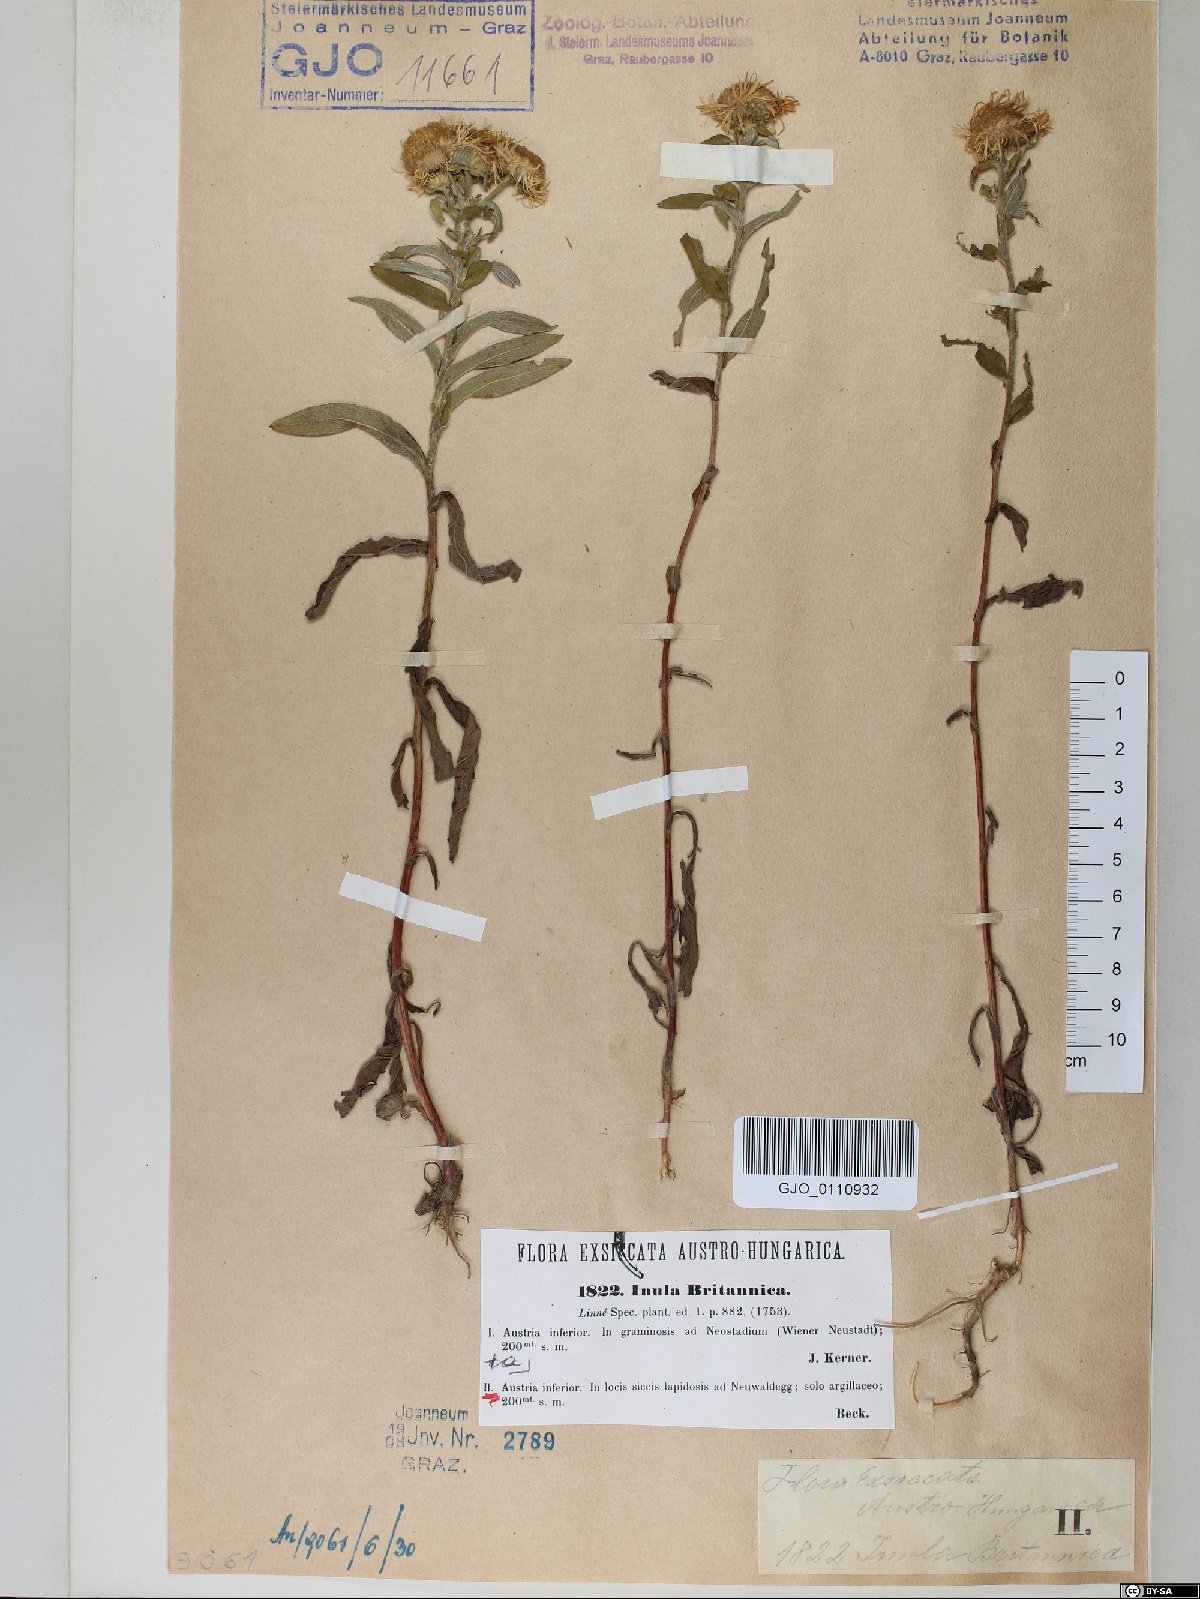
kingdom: Plantae
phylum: Tracheophyta
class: Magnoliopsida
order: Asterales
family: Asteraceae
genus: Pentanema
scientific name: Pentanema britannicum
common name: British elecampane
